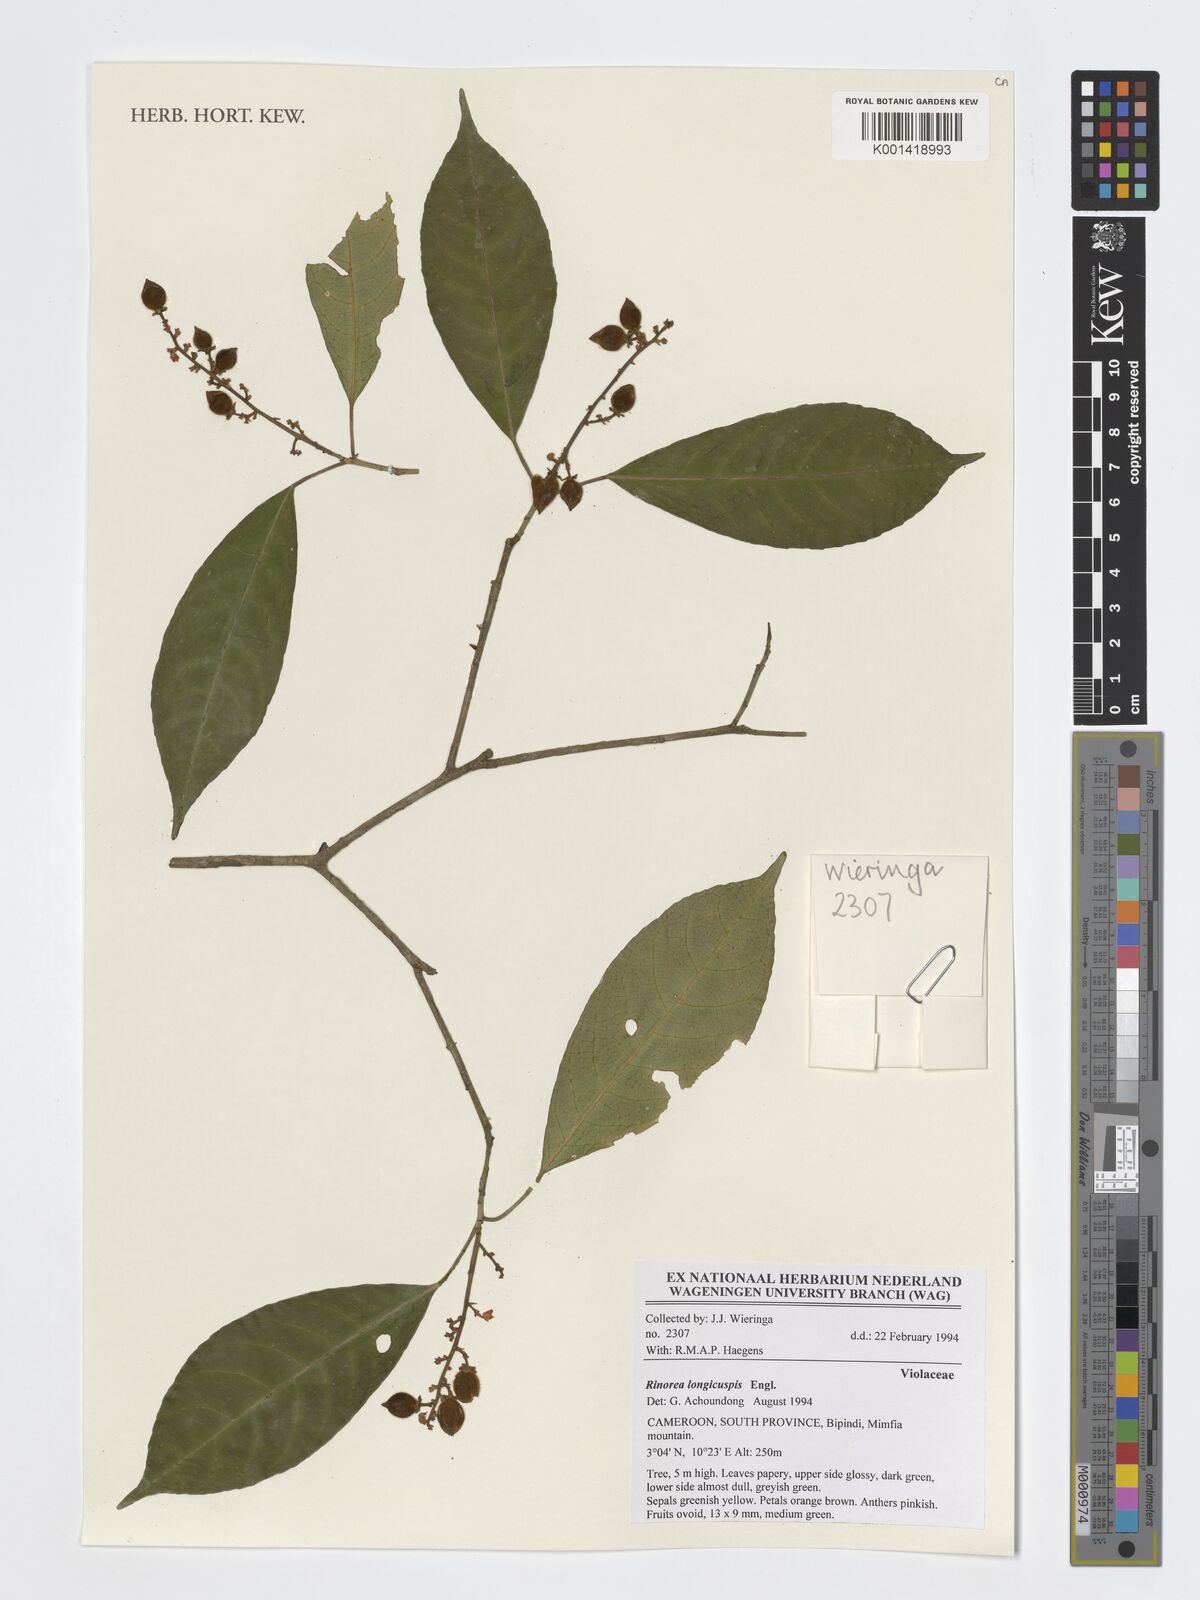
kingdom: Plantae
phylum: Tracheophyta
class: Magnoliopsida
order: Malpighiales
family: Violaceae
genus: Rinorea
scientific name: Rinorea welwitschii
